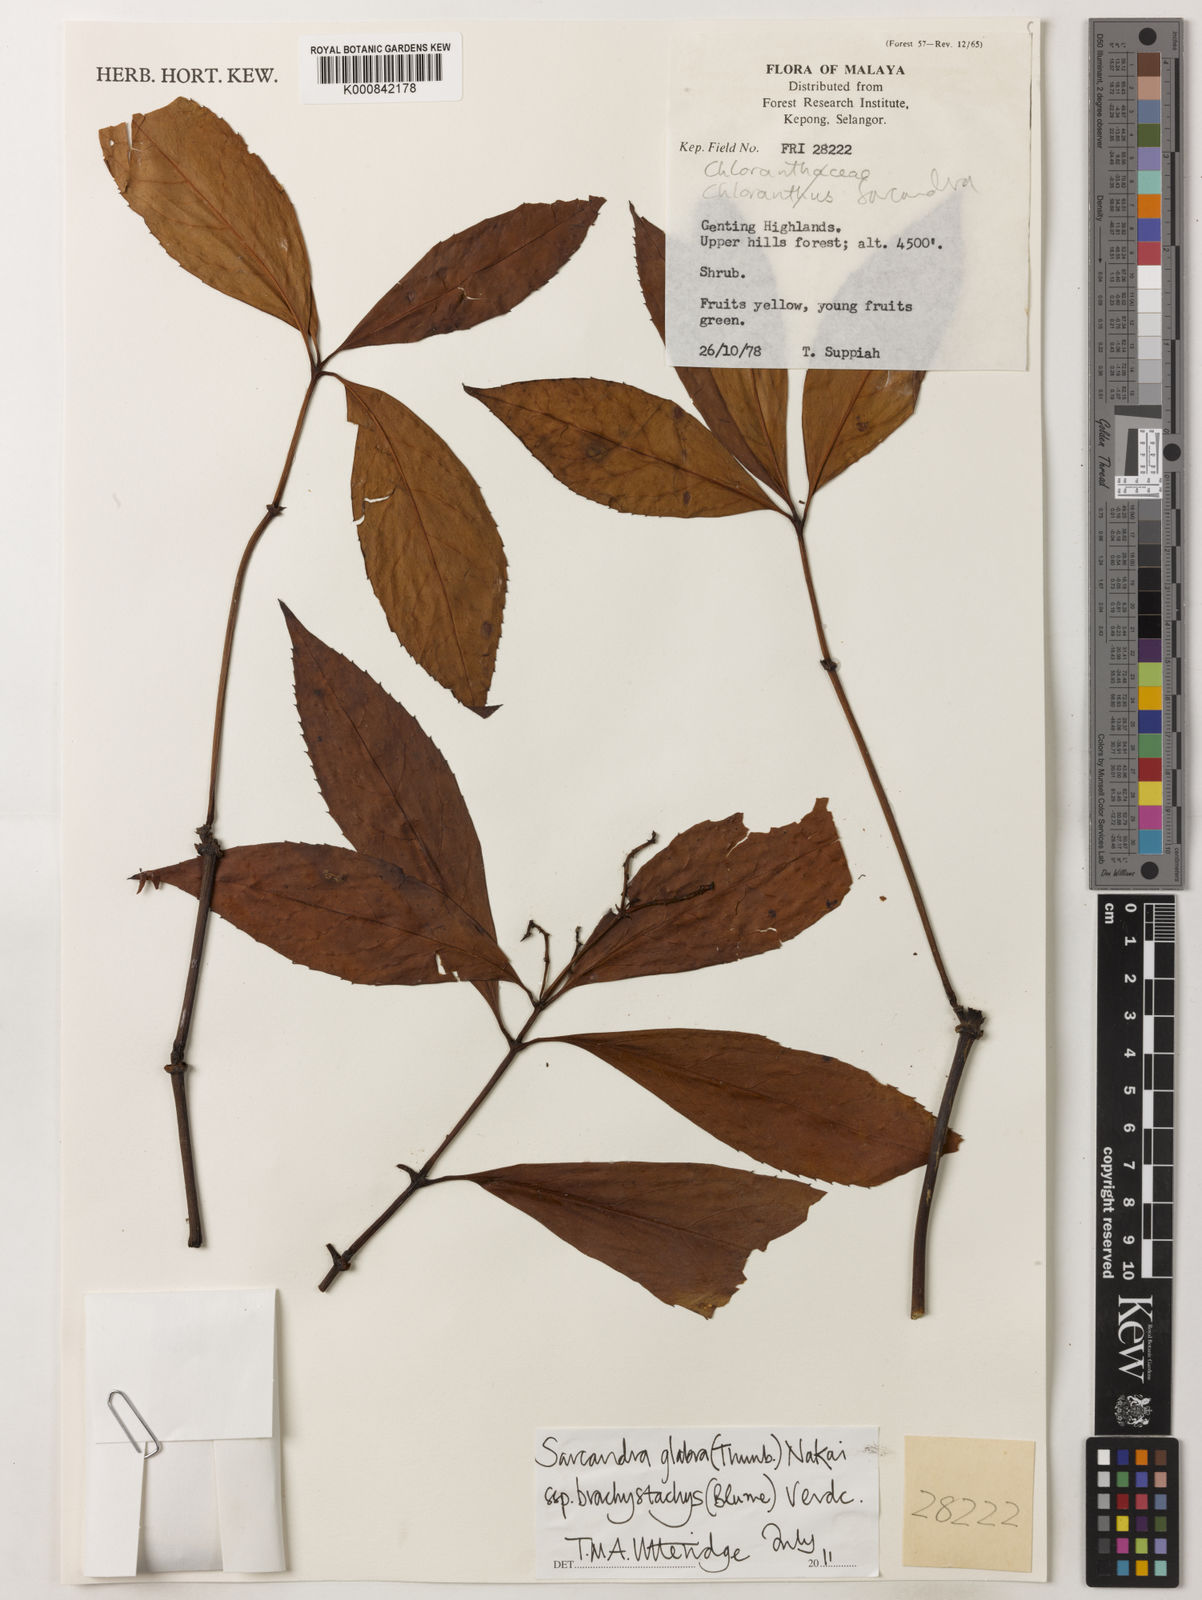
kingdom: Plantae
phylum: Tracheophyta
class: Magnoliopsida
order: Chloranthales
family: Chloranthaceae
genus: Sarcandra
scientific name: Sarcandra glabra
